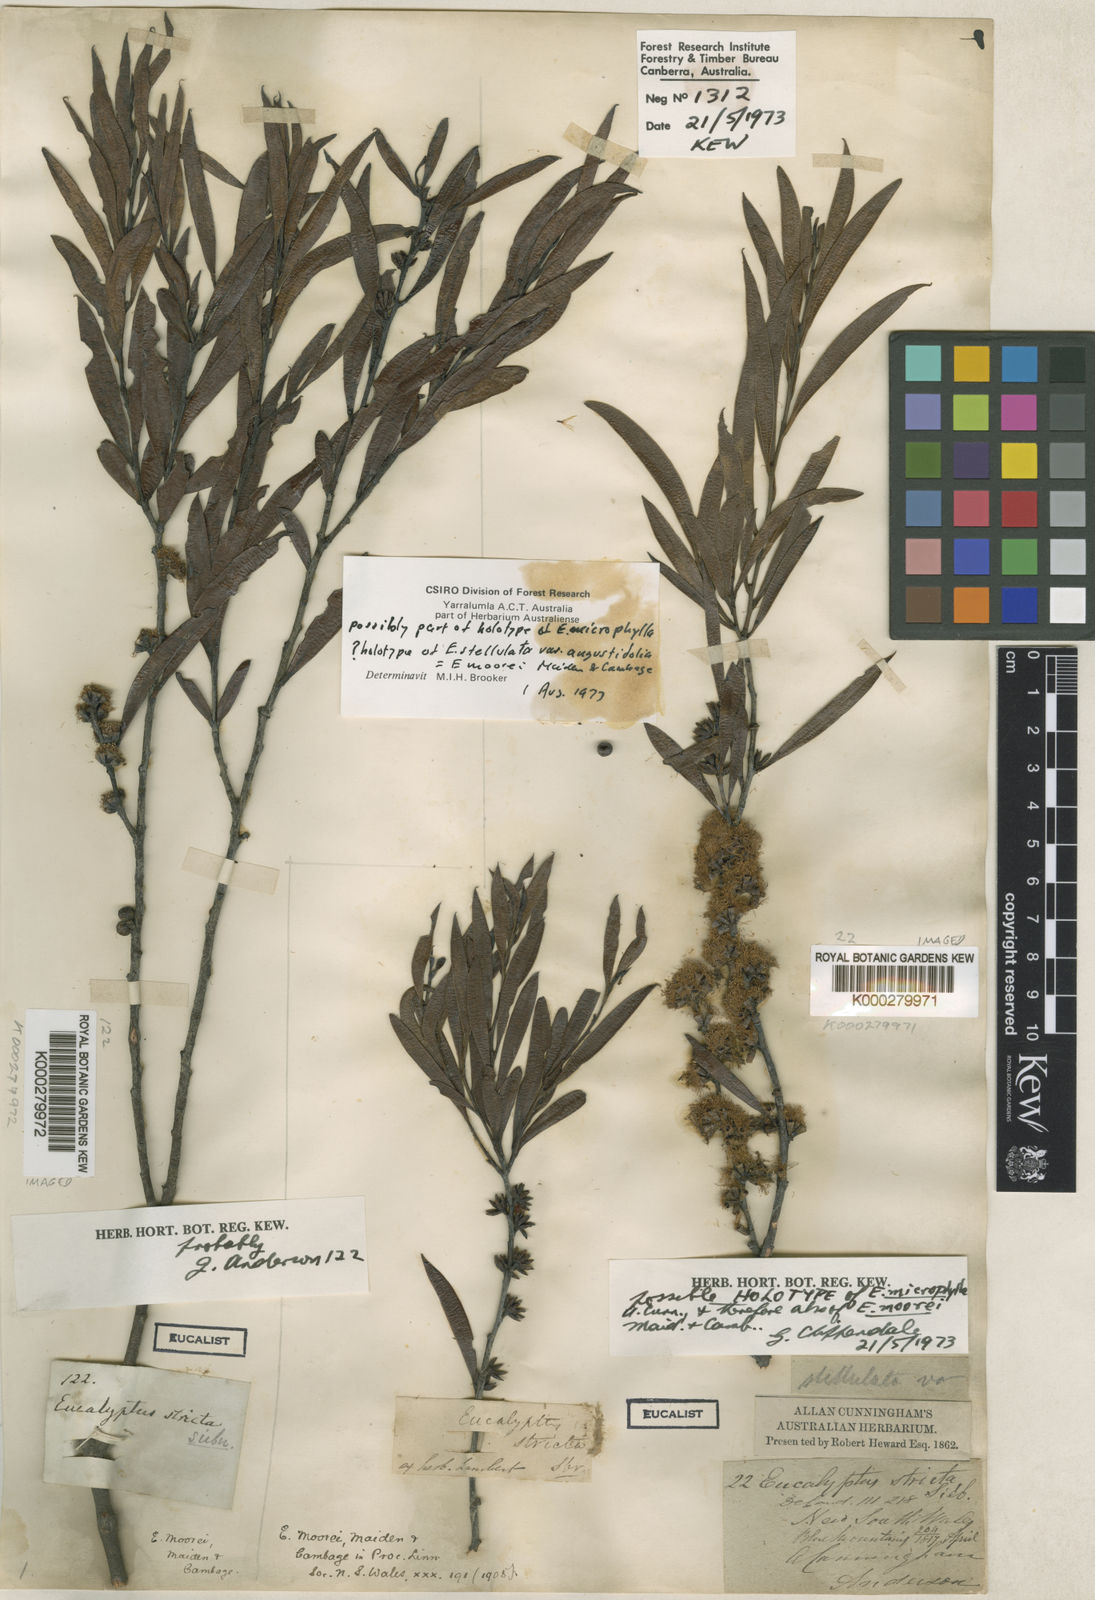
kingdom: Plantae
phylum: Tracheophyta
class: Magnoliopsida
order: Myrtales
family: Myrtaceae
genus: Eucalyptus
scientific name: Eucalyptus moorei
